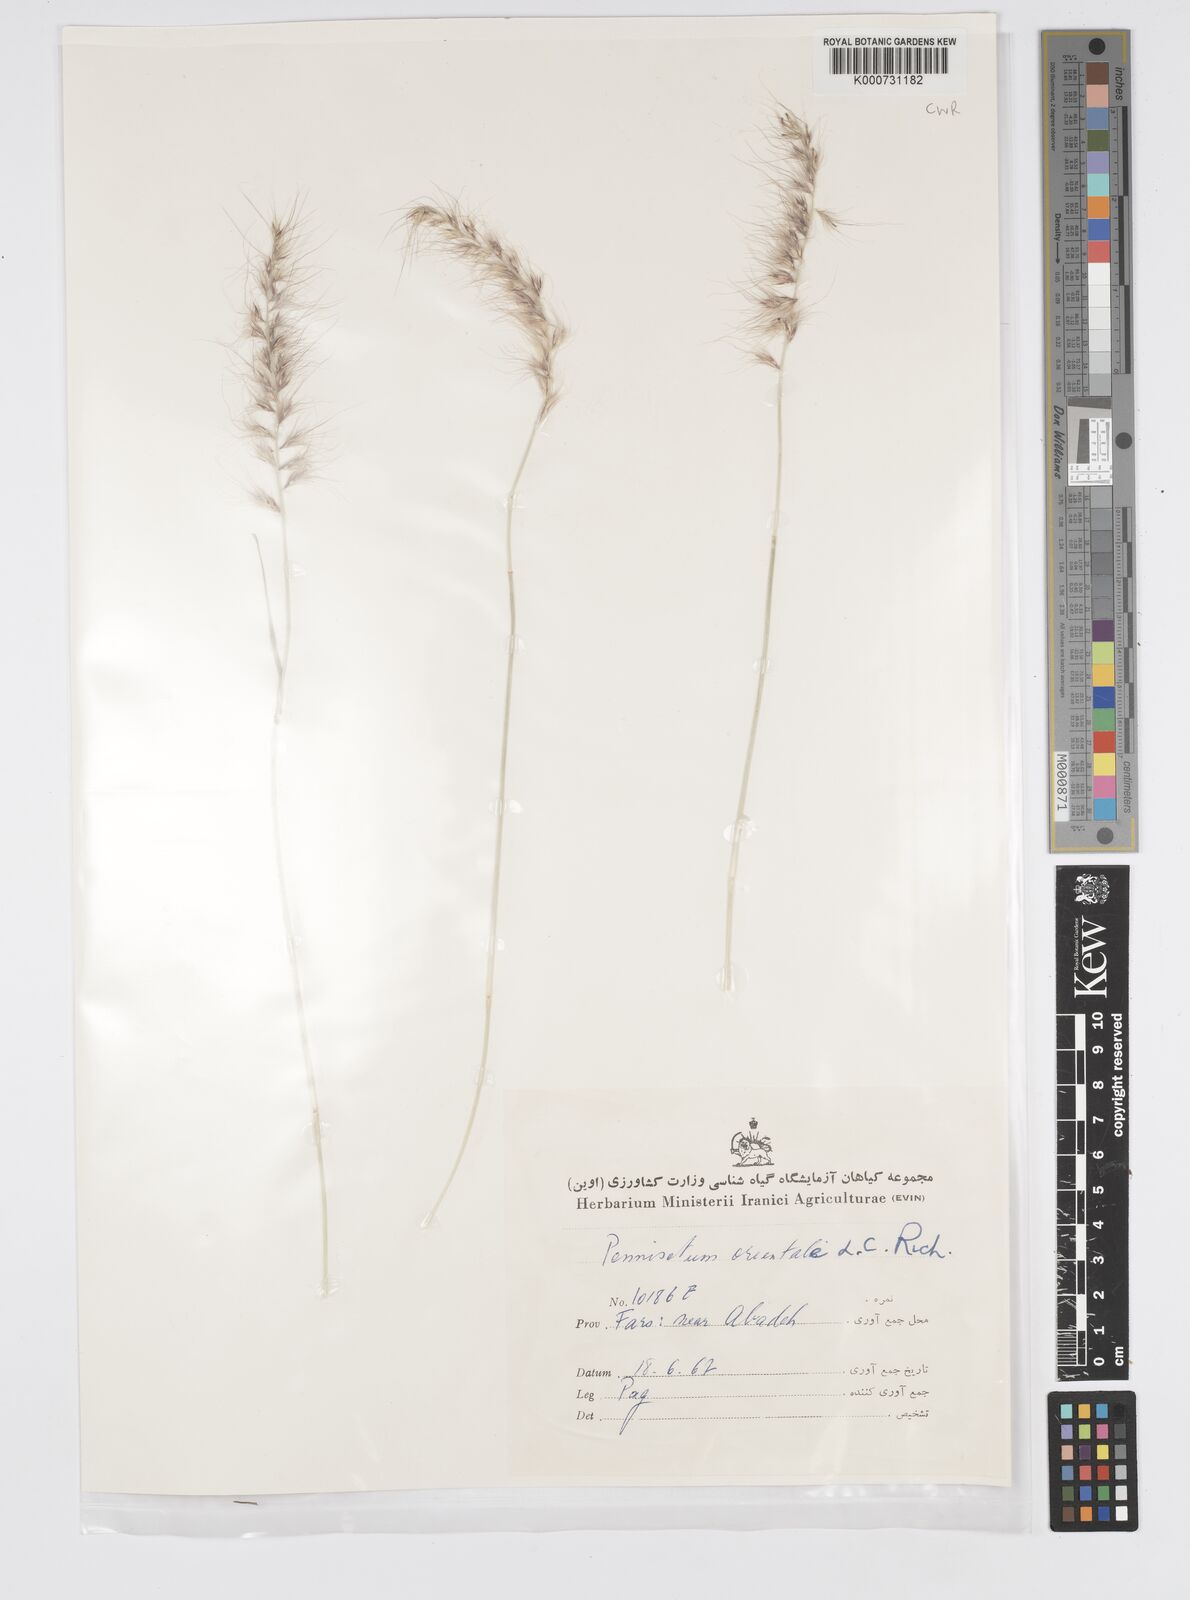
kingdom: Plantae
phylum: Tracheophyta
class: Liliopsida
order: Poales
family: Poaceae
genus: Cenchrus
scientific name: Cenchrus orientalis
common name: Oriental fountain grass
